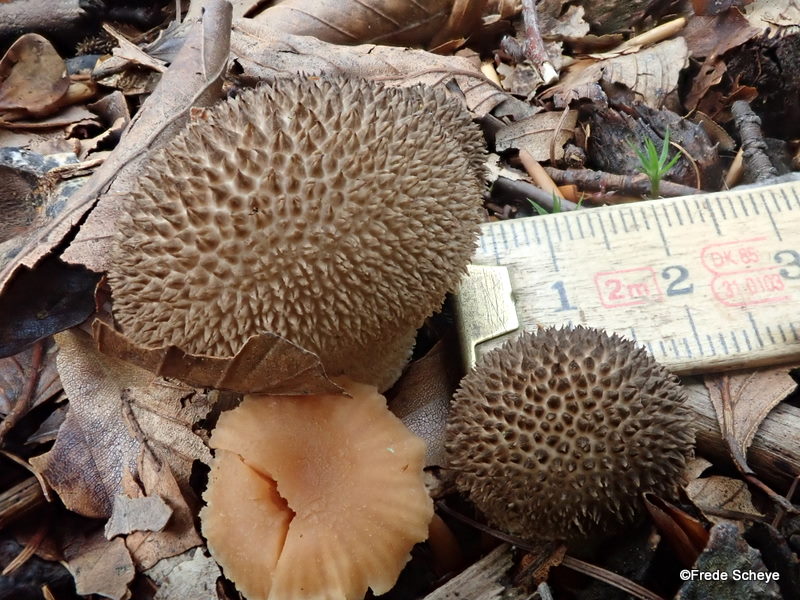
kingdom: Fungi
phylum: Basidiomycota
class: Agaricomycetes
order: Agaricales
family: Lycoperdaceae
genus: Lycoperdon
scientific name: Lycoperdon nigrescens
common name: sortagtig støvbold
